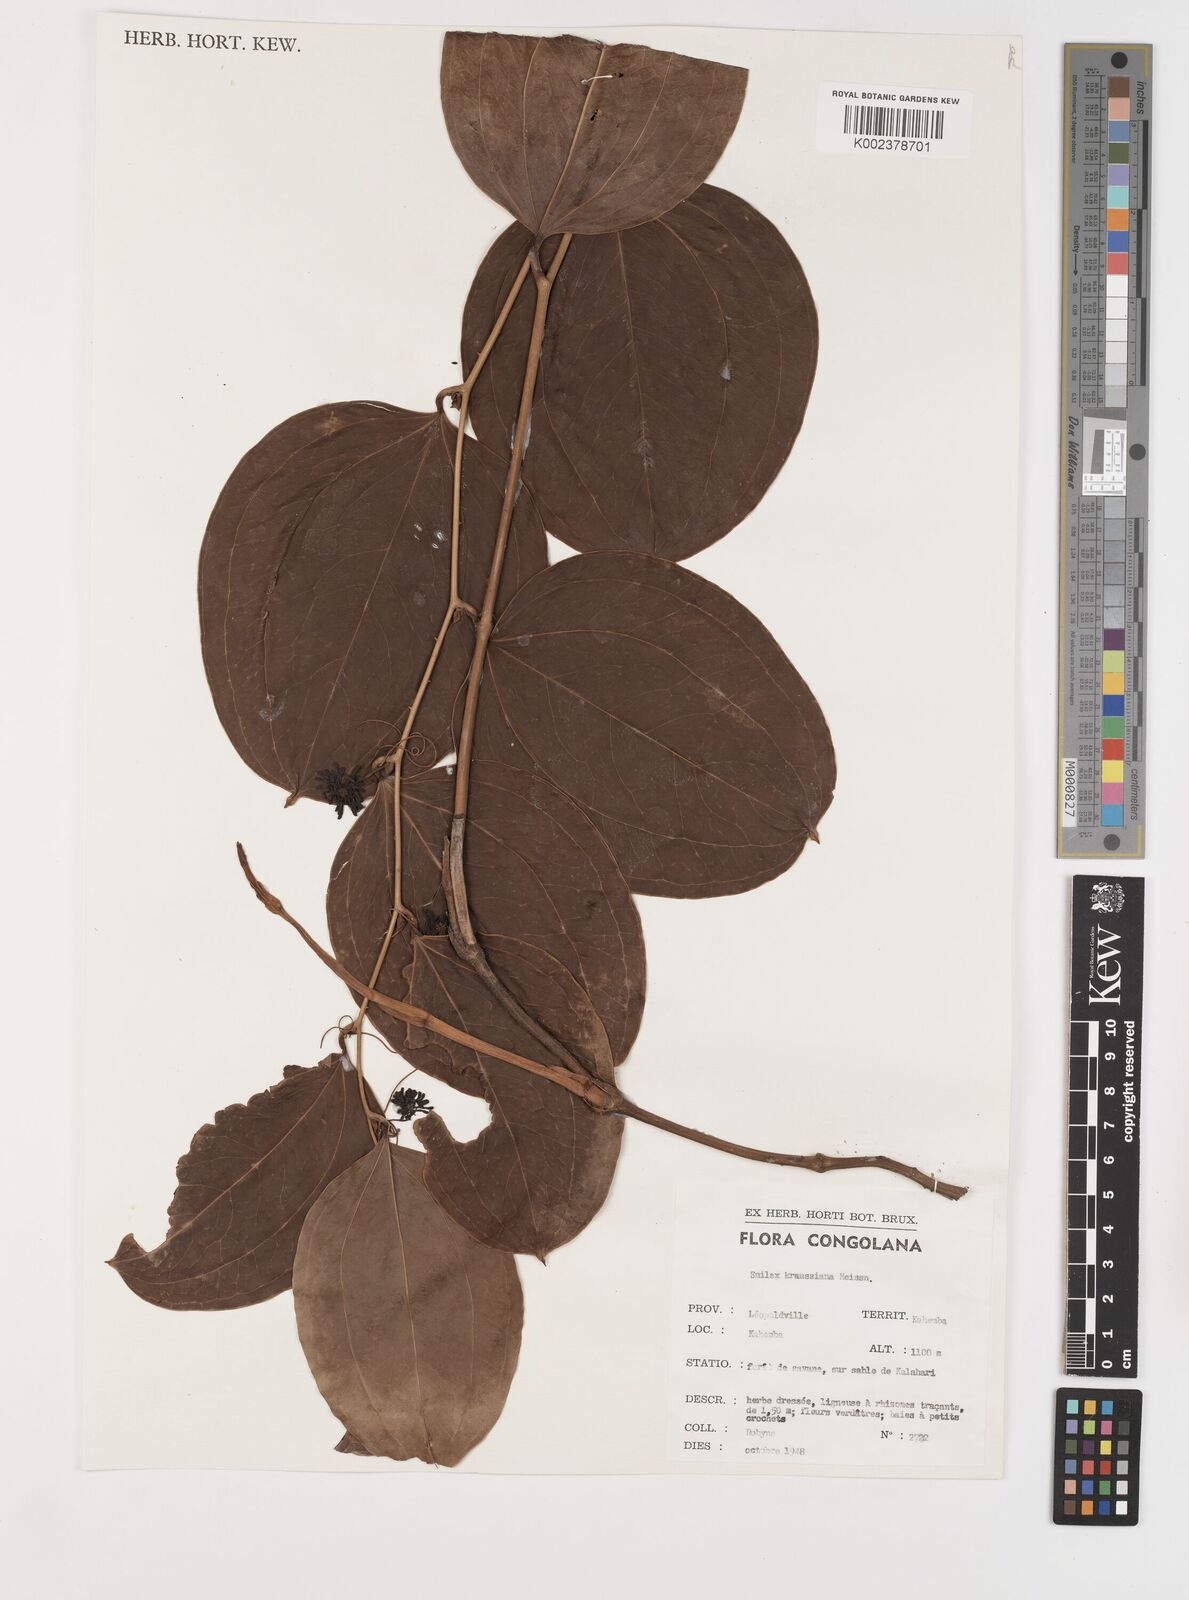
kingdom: Plantae
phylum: Tracheophyta
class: Liliopsida
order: Liliales
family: Smilacaceae
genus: Smilax
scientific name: Smilax anceps
